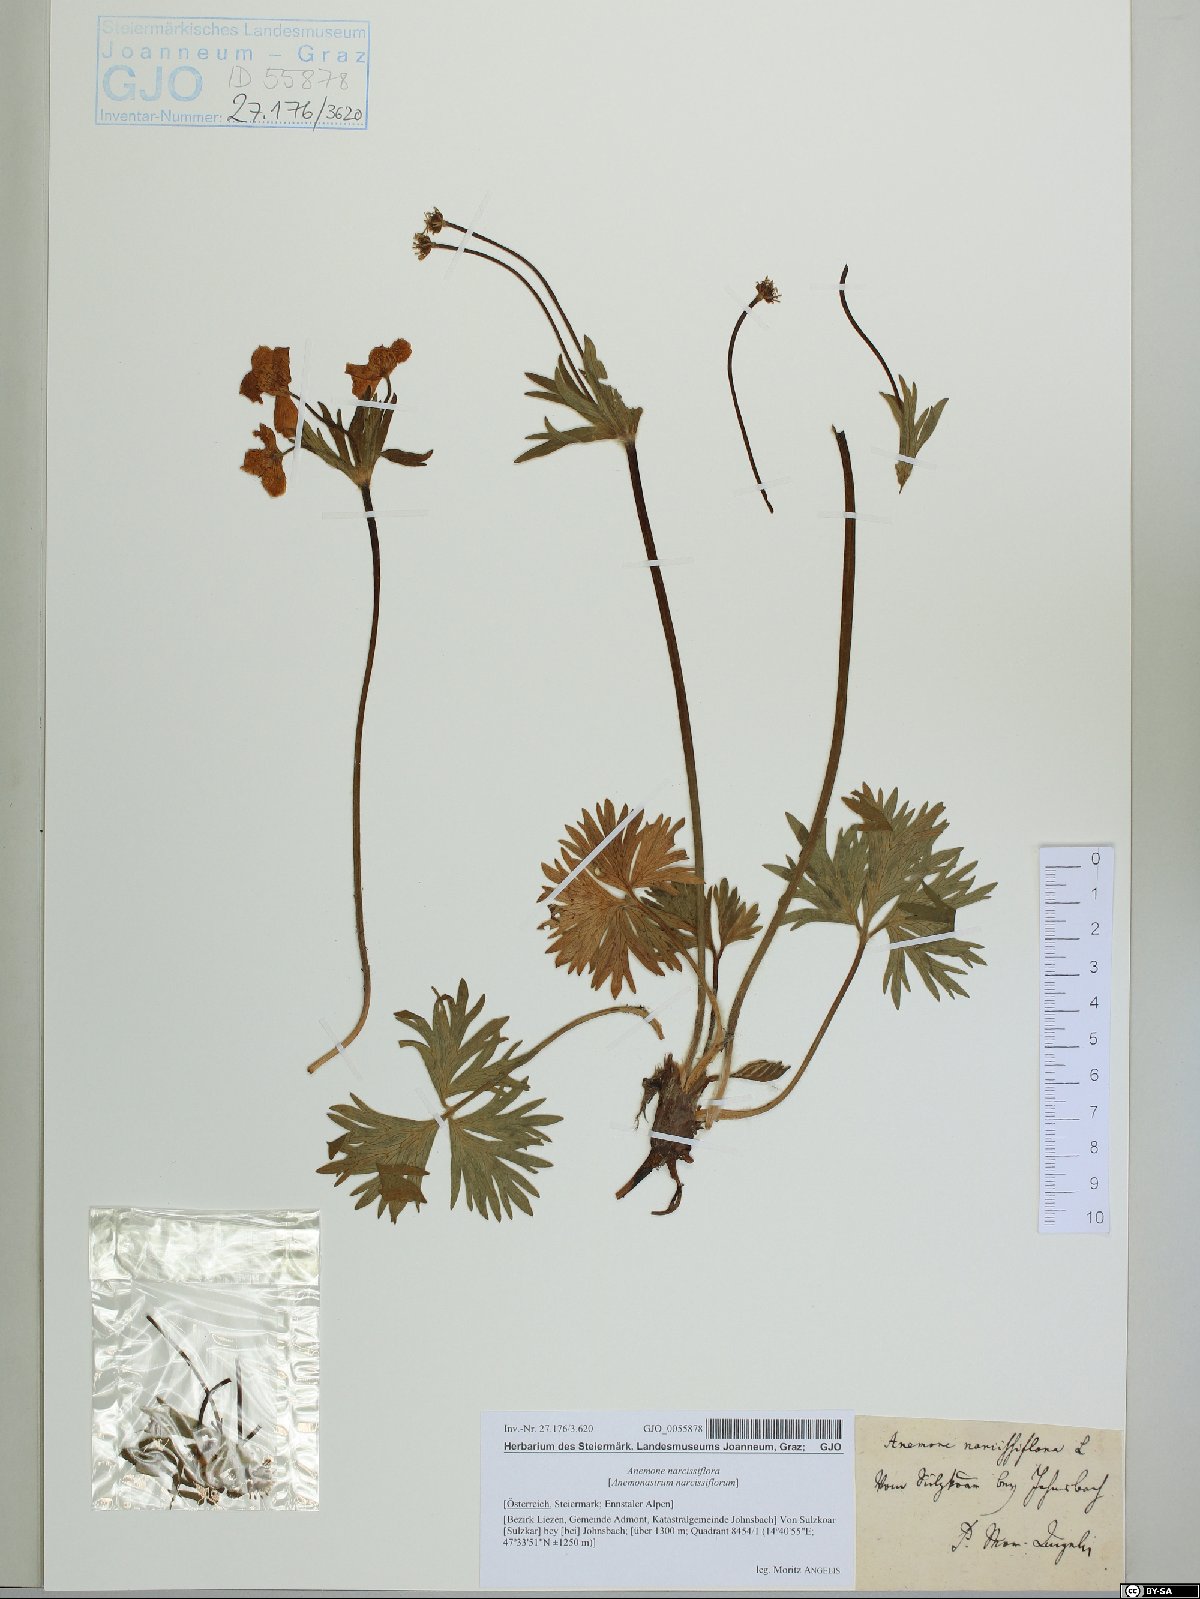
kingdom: Plantae
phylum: Tracheophyta
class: Magnoliopsida
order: Ranunculales
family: Ranunculaceae
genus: Anemonastrum
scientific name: Anemonastrum narcissiflorum
